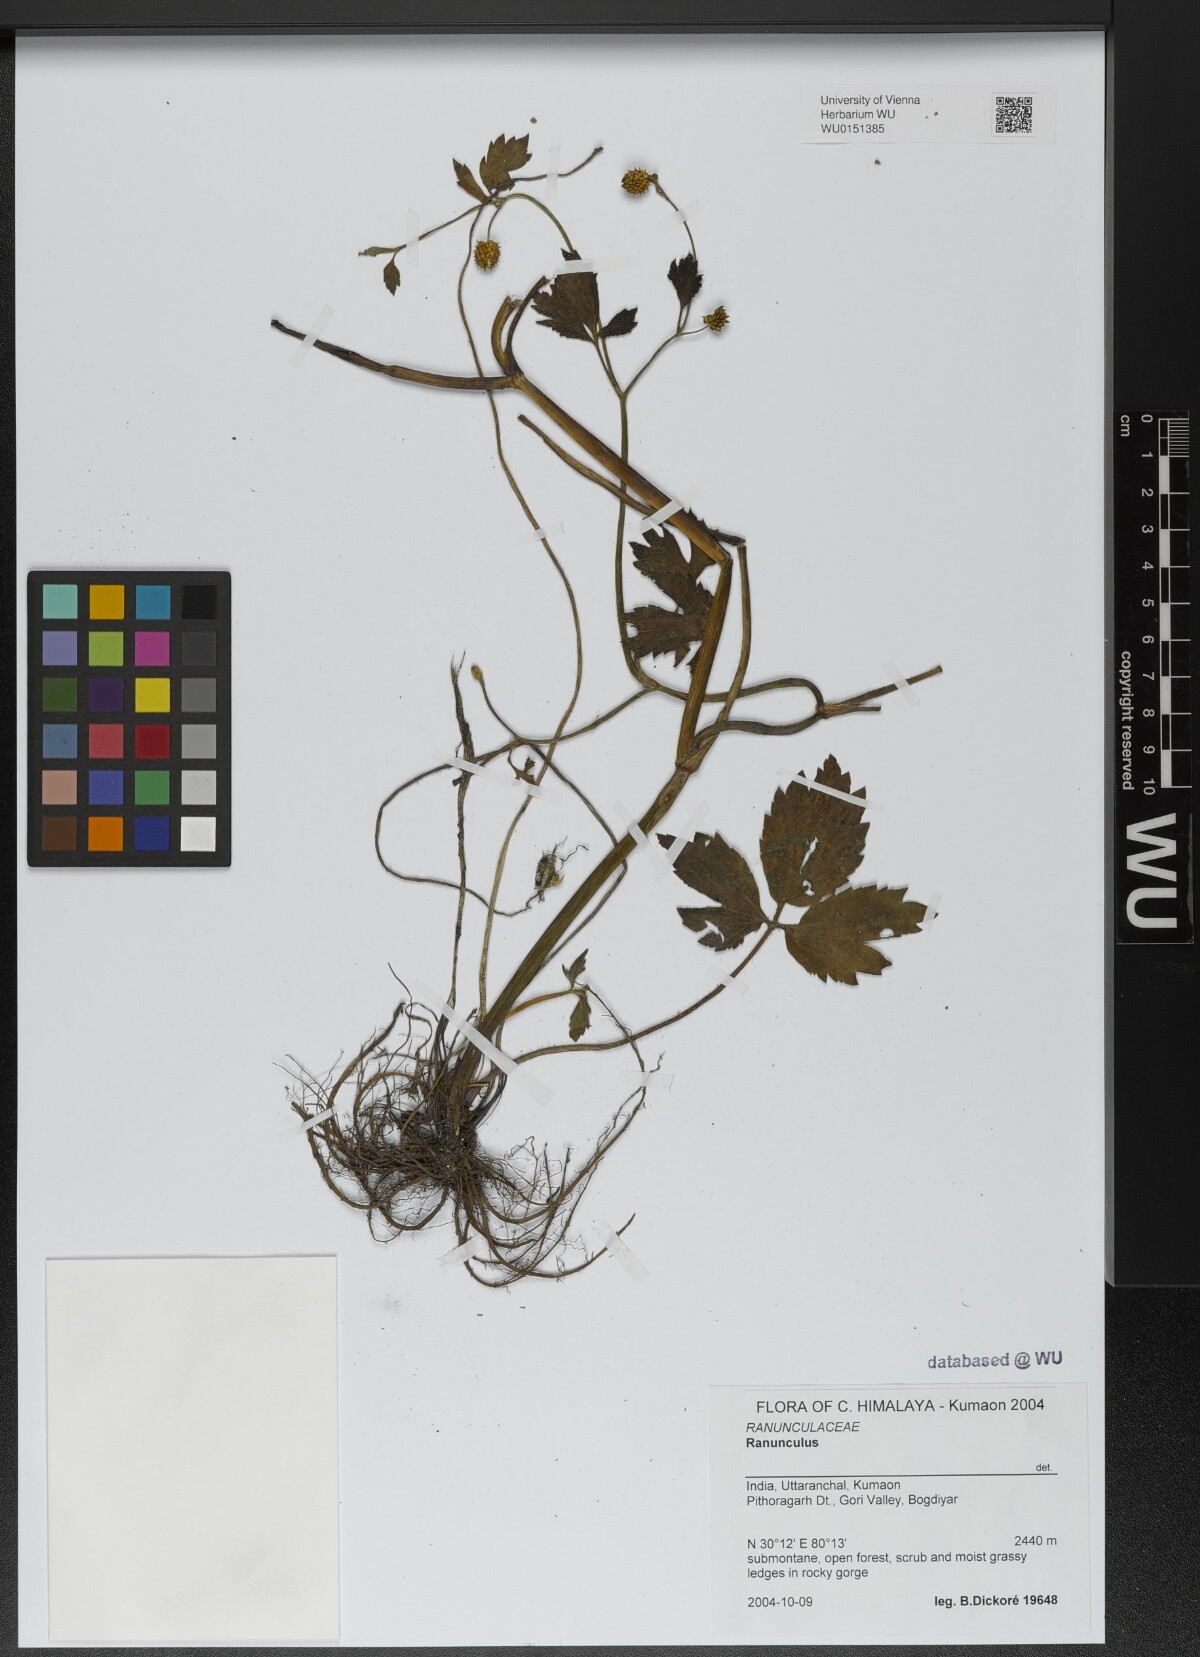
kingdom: Plantae
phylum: Tracheophyta
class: Magnoliopsida
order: Ranunculales
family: Ranunculaceae
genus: Ranunculus
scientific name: Ranunculus diffusus
